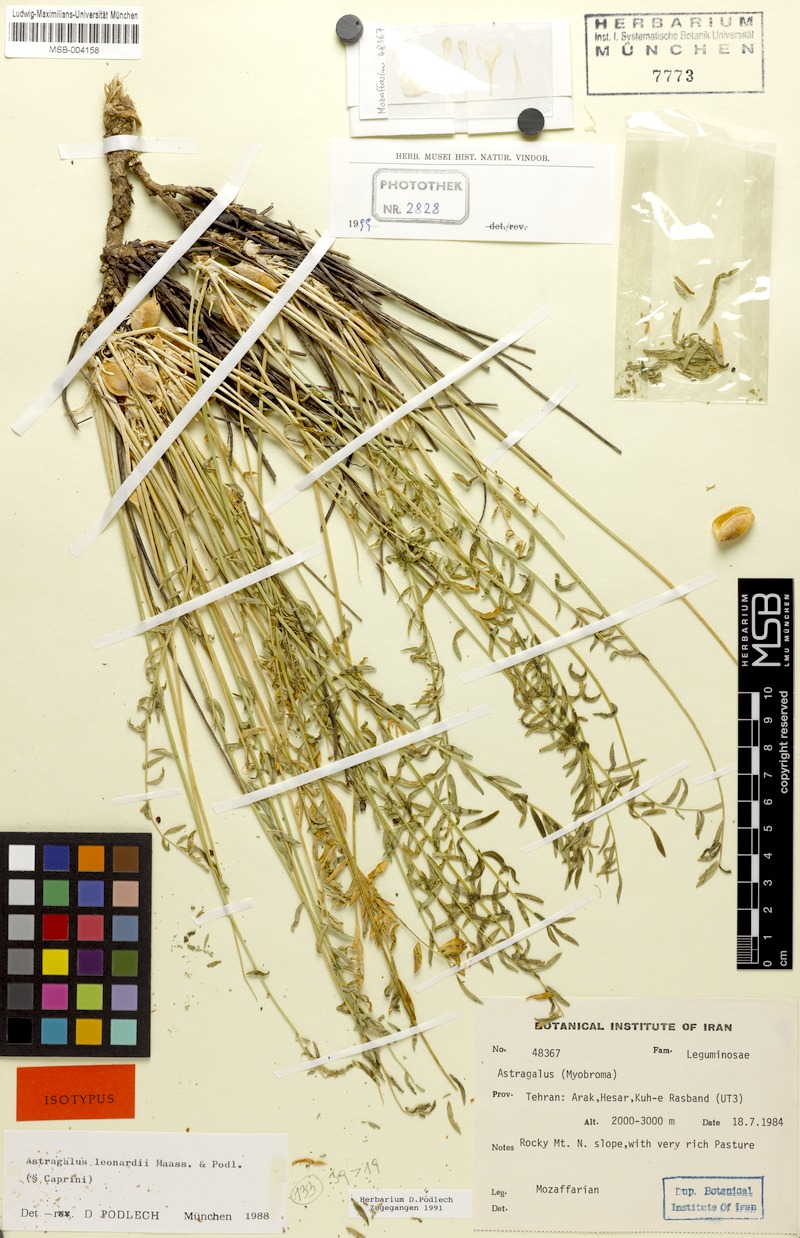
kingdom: Plantae
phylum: Tracheophyta
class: Magnoliopsida
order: Fabales
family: Fabaceae
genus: Astragalus
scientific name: Astragalus leonardii
